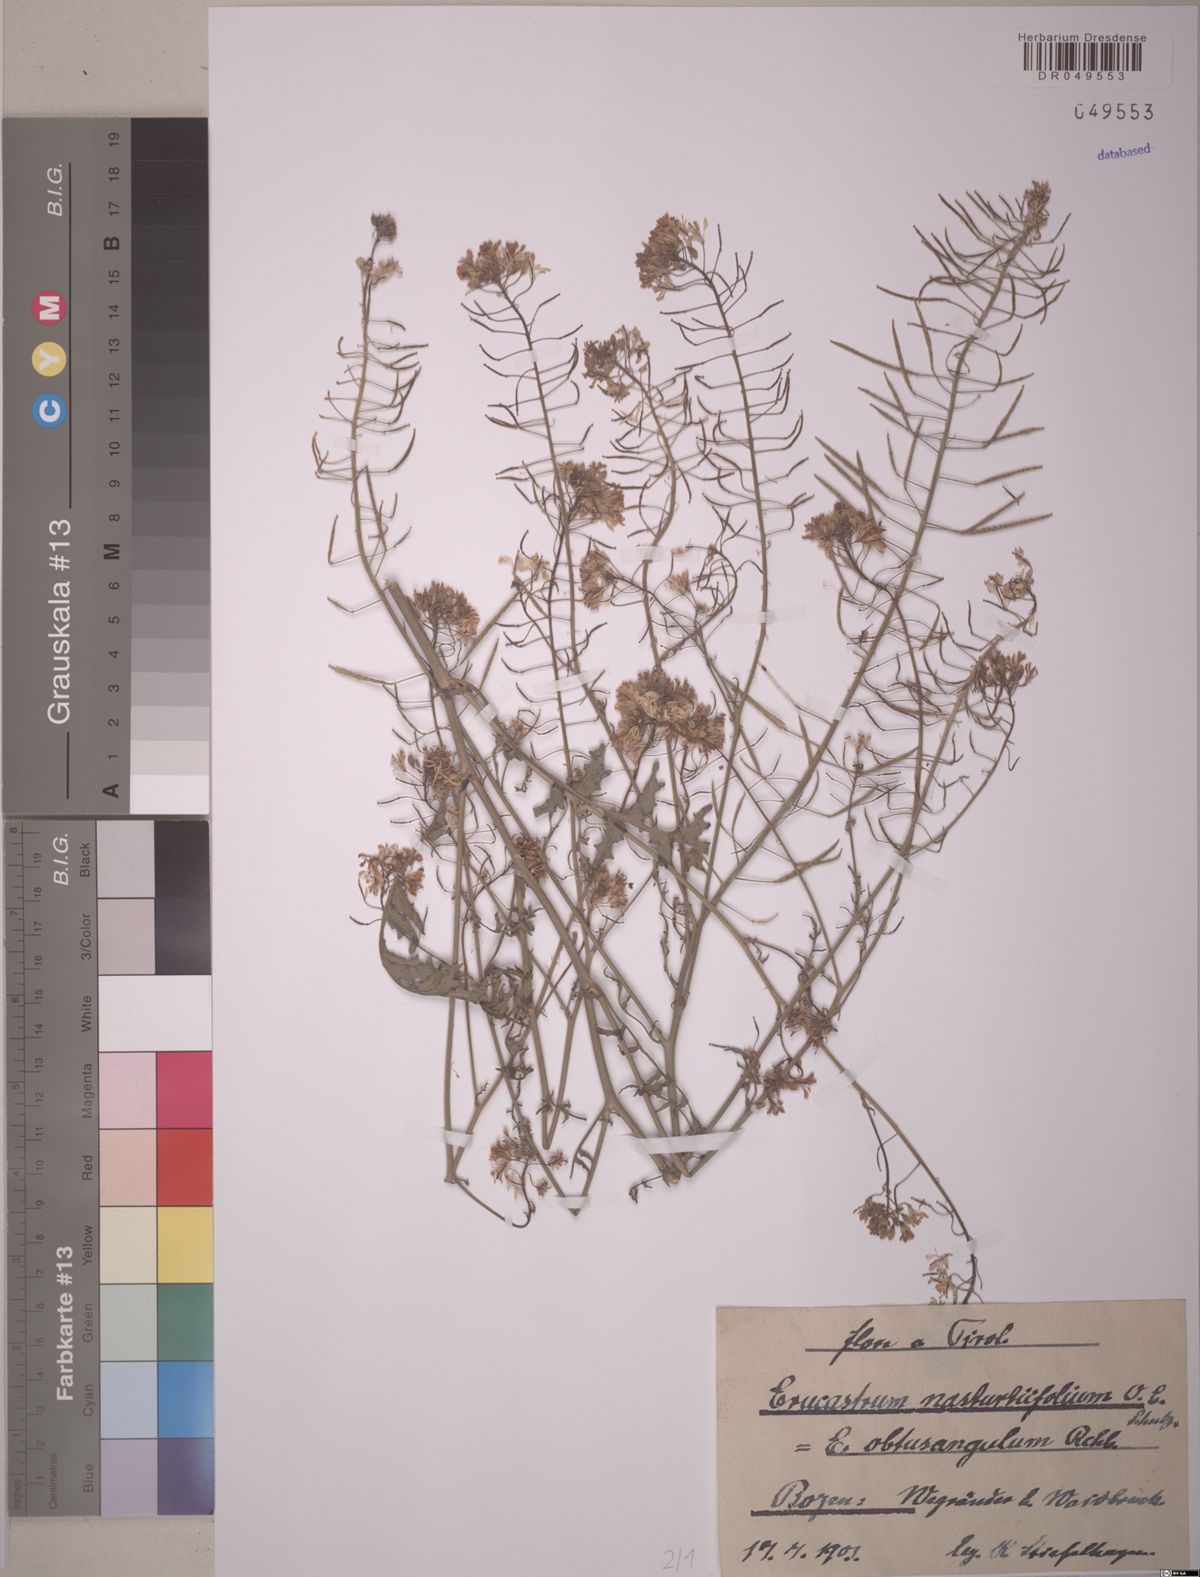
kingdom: Plantae
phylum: Tracheophyta
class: Magnoliopsida
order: Brassicales
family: Brassicaceae
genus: Erucastrum
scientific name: Erucastrum nasturtiifolium
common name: Watercress-leaf rocket
